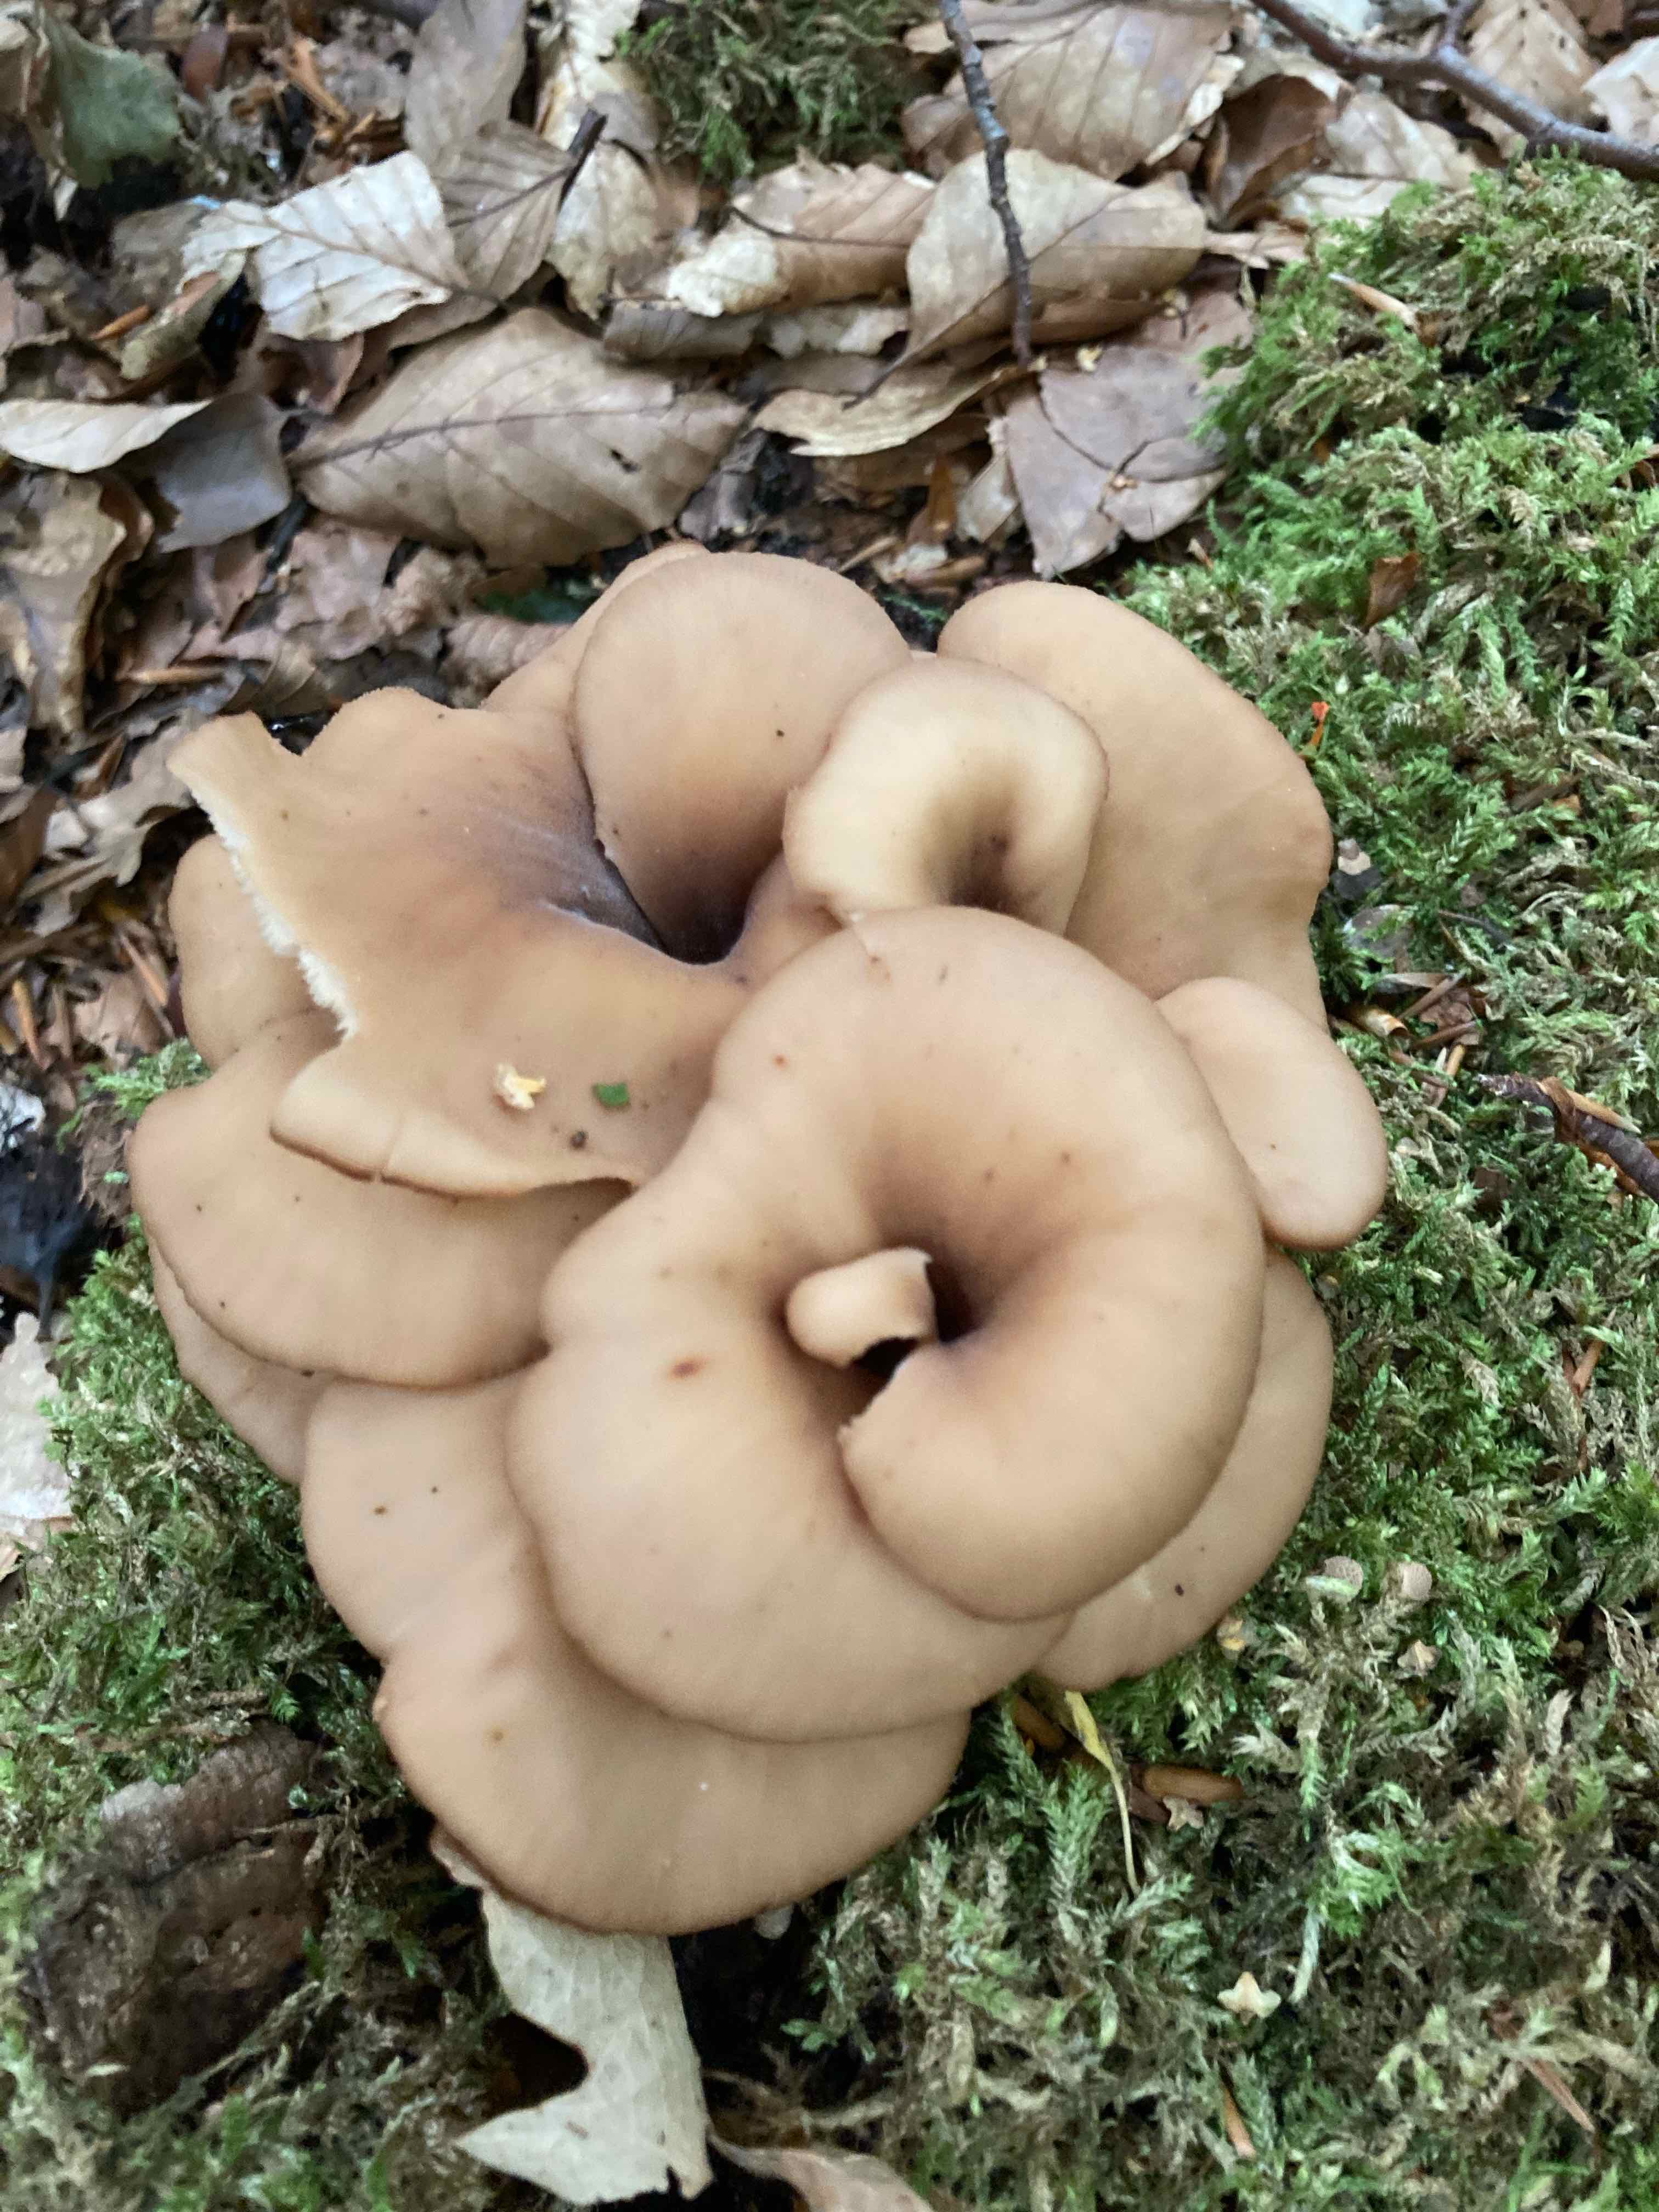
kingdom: Fungi
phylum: Basidiomycota
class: Agaricomycetes
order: Russulales
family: Auriscalpiaceae
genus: Lentinellus
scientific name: Lentinellus cochleatus
